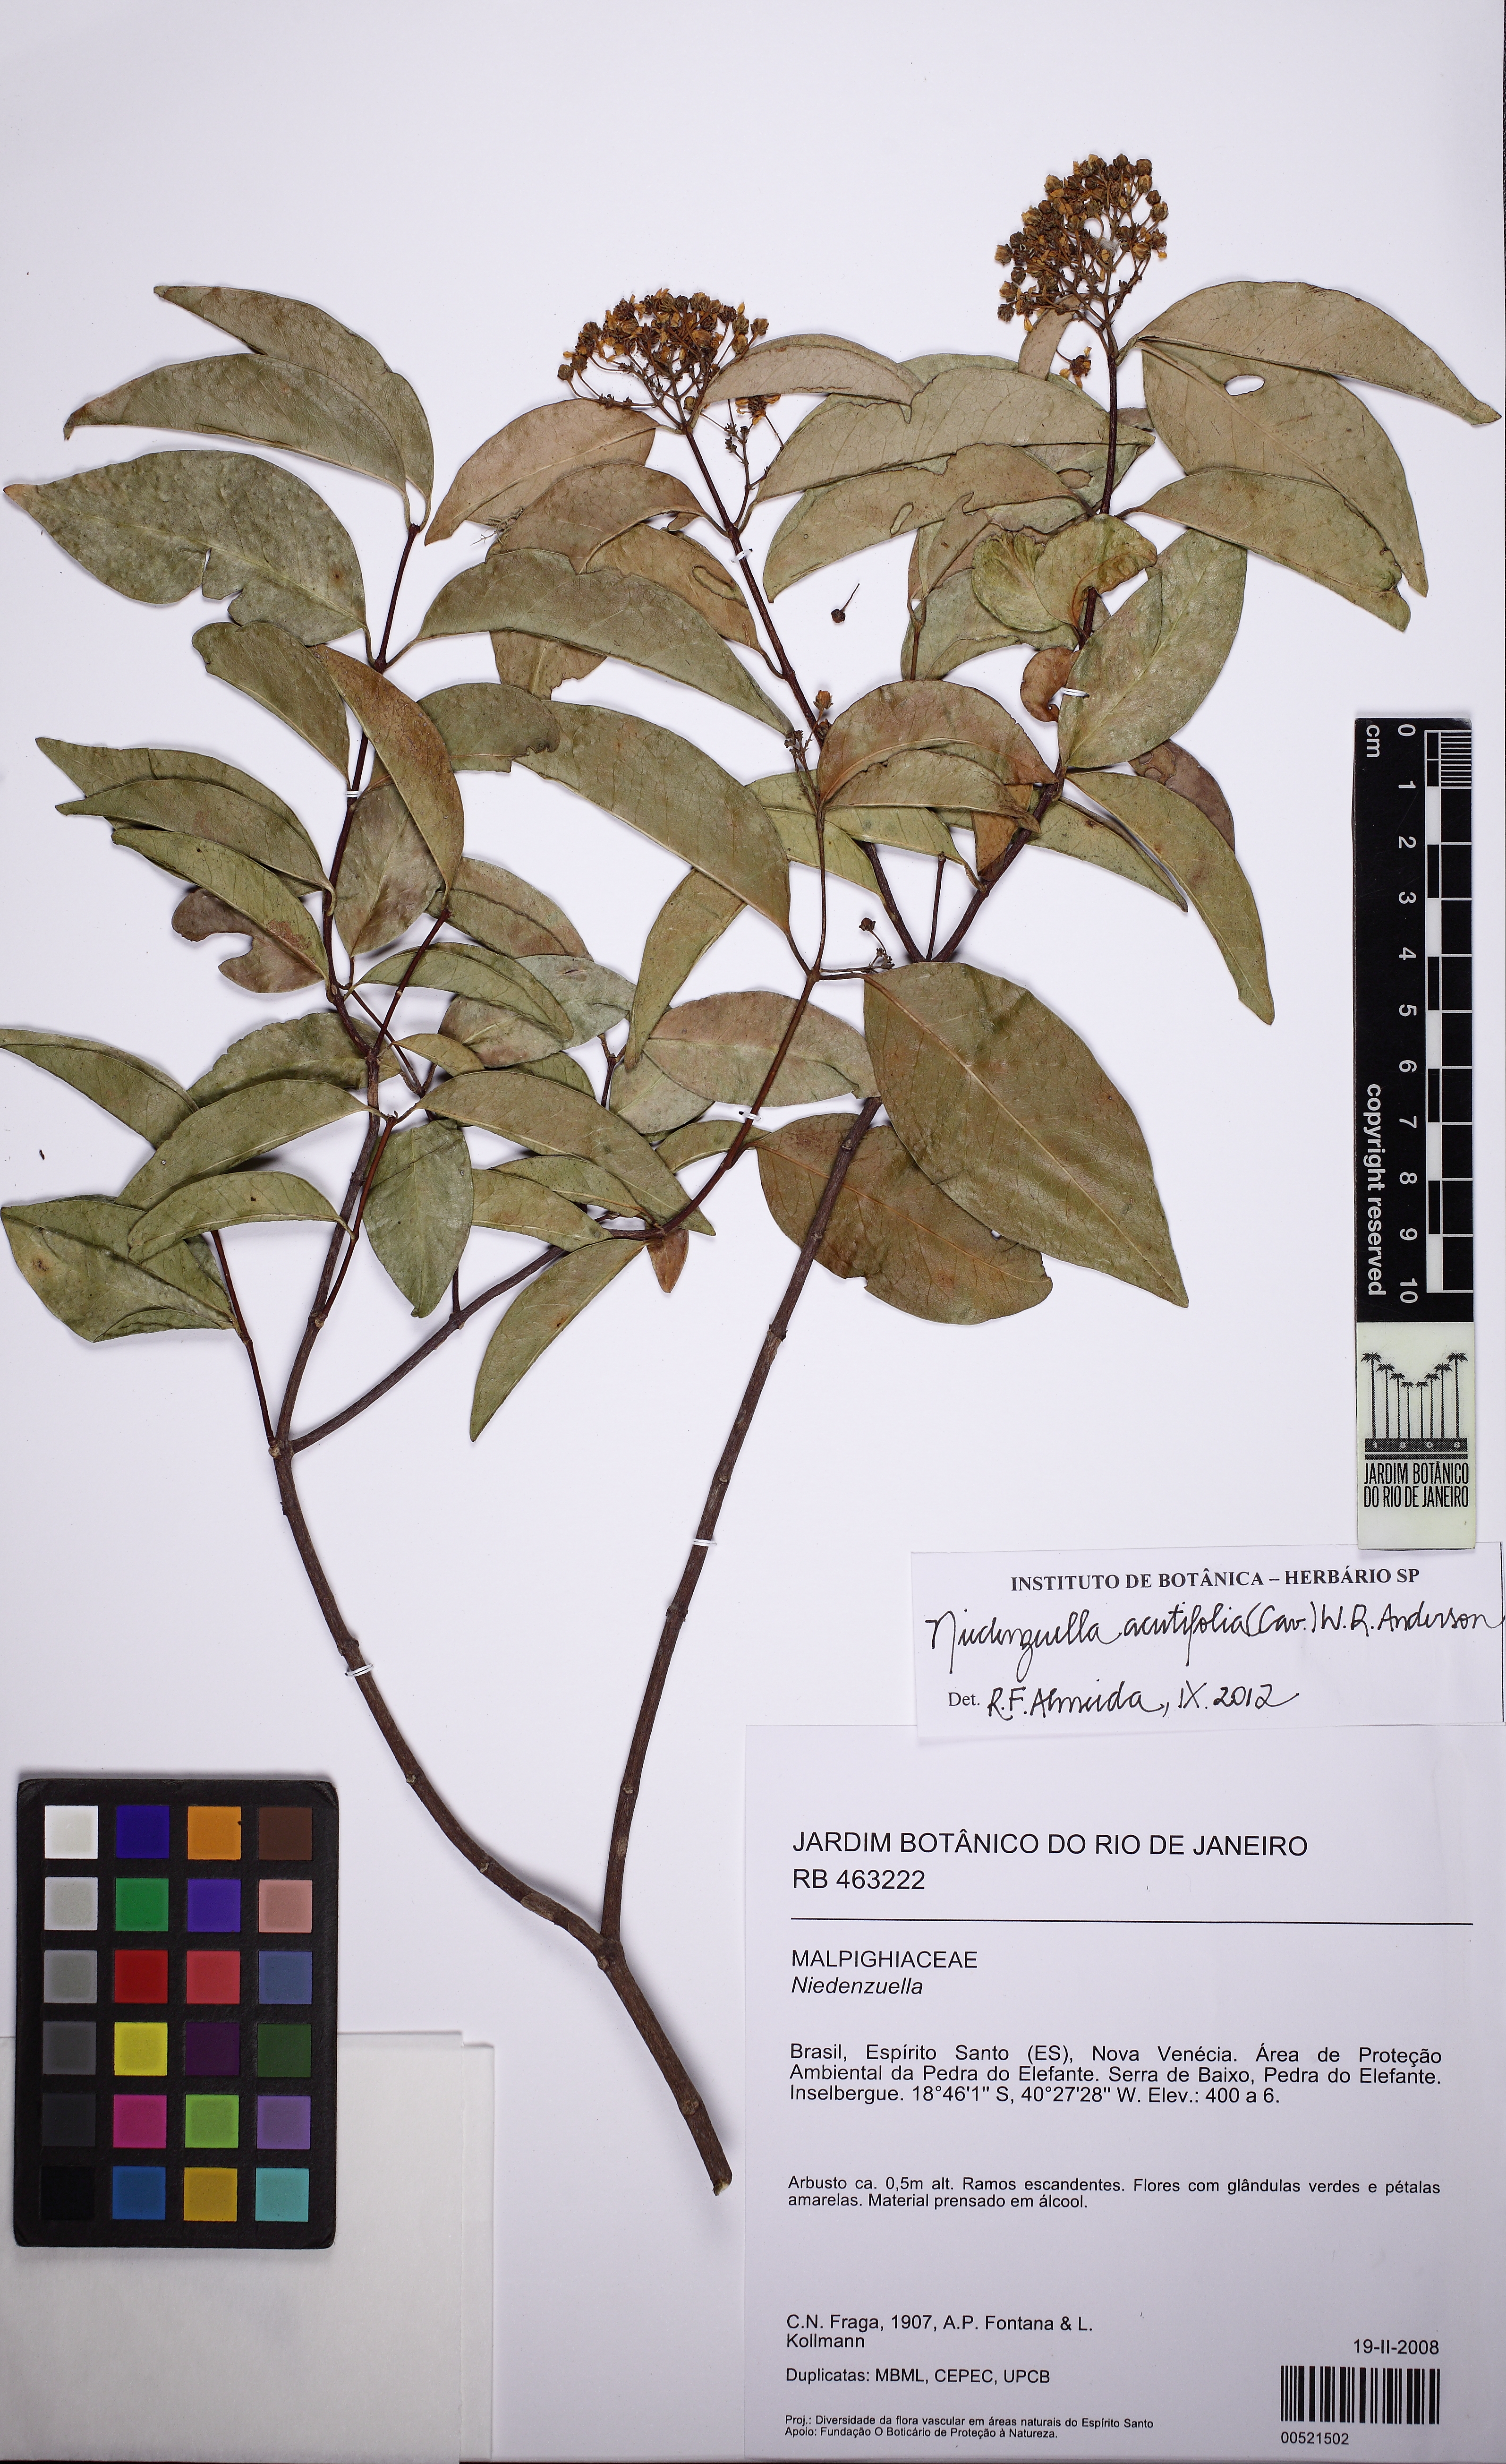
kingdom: Plantae
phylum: Tracheophyta
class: Magnoliopsida
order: Malpighiales
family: Malpighiaceae
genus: Niedenzuella
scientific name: Niedenzuella acutifolia
